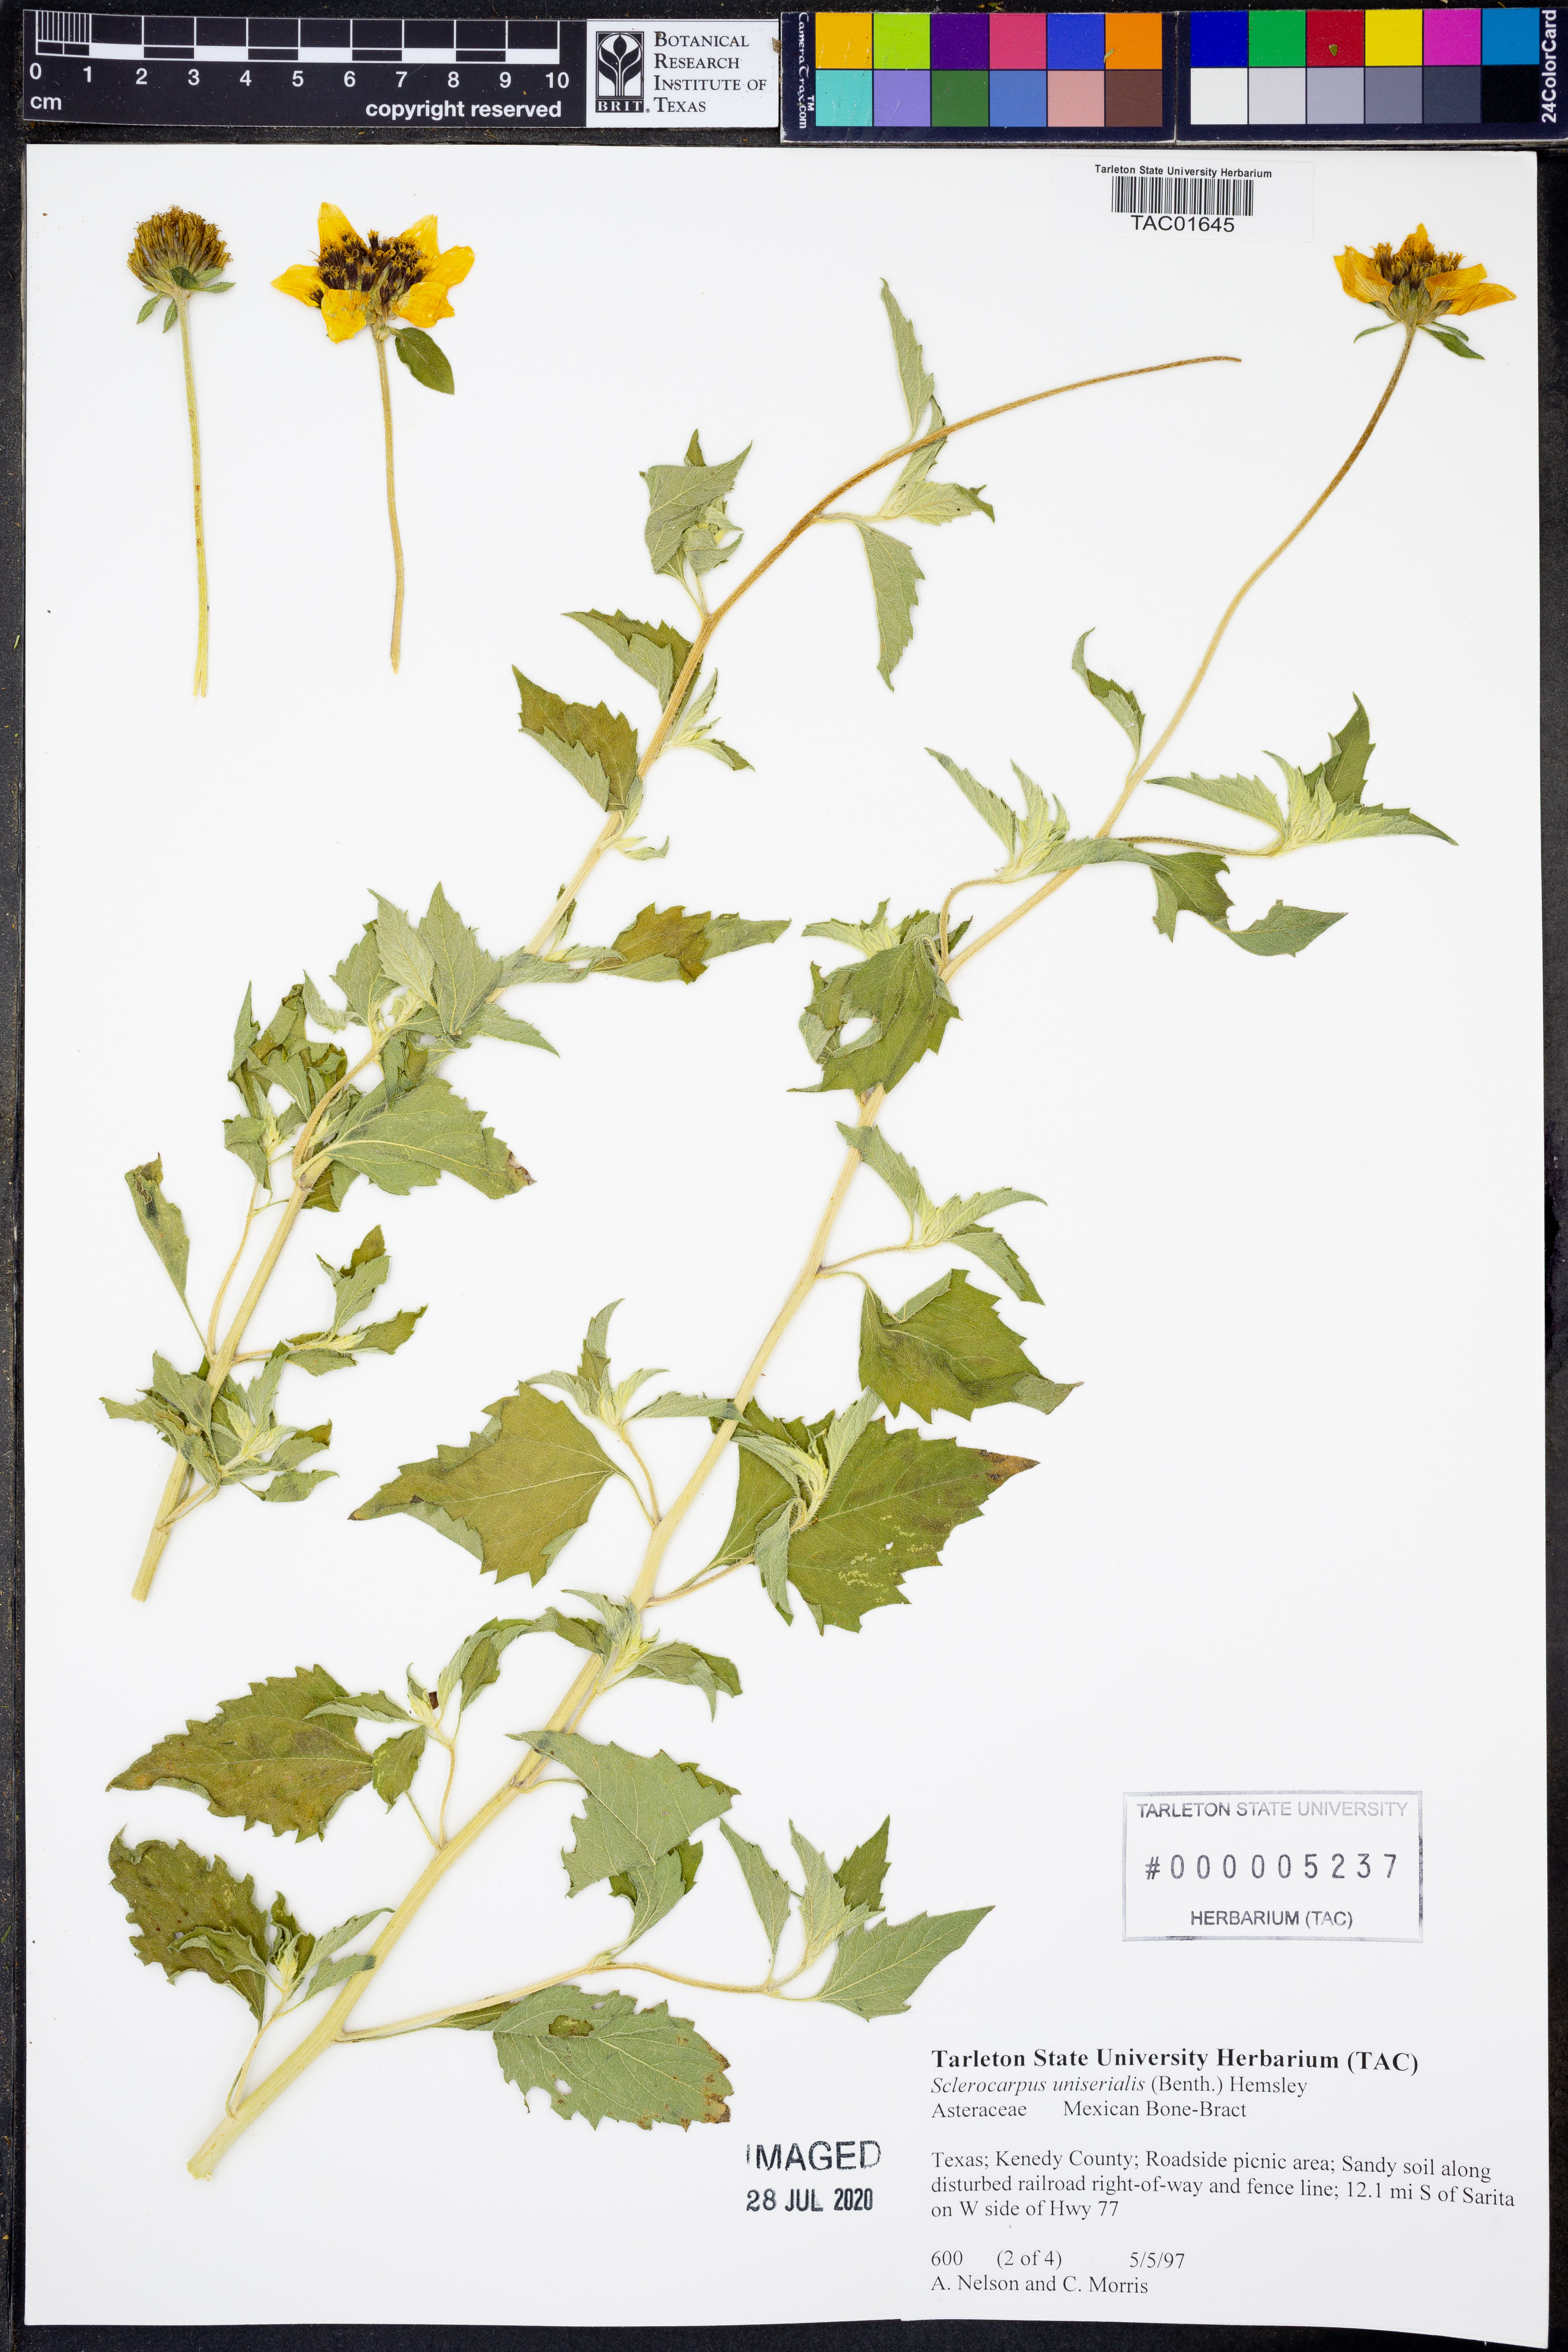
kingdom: Plantae
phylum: Tracheophyta
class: Magnoliopsida
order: Asterales
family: Asteraceae
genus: Sclerocarpus
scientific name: Sclerocarpus uniserialis
